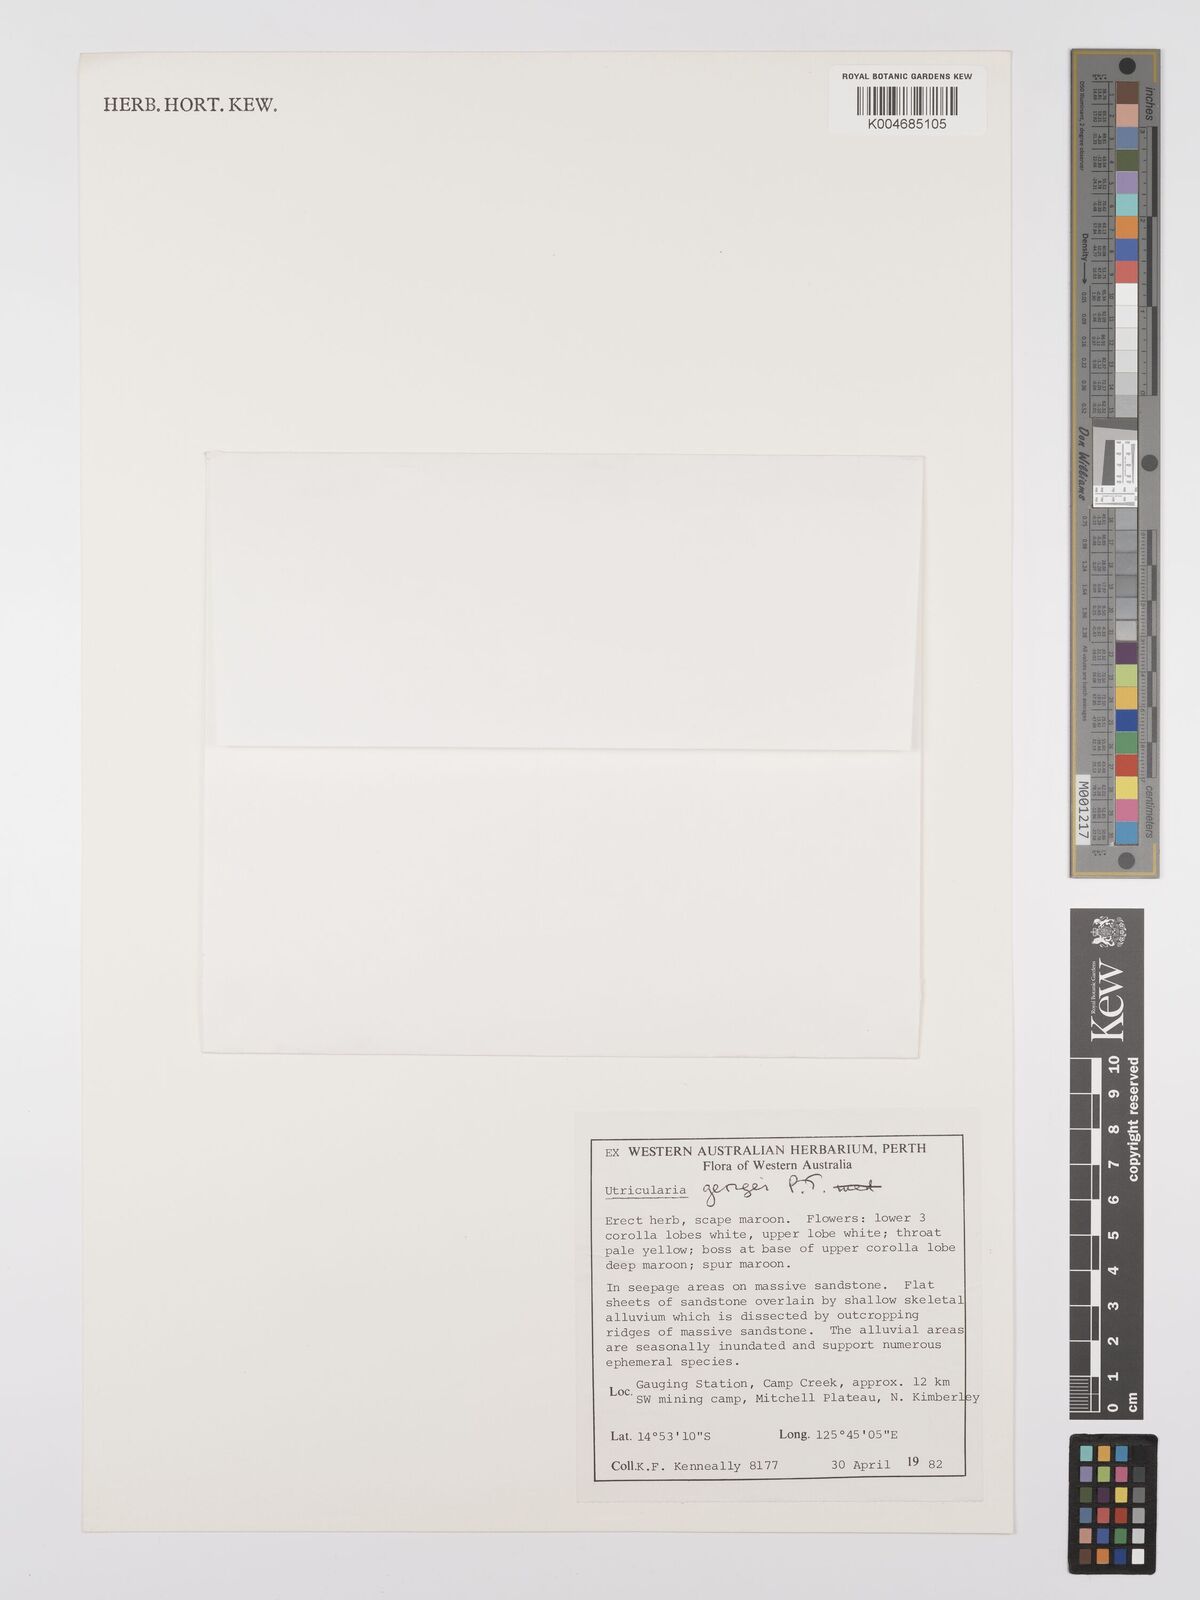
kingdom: Plantae
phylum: Tracheophyta
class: Magnoliopsida
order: Lamiales
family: Lentibulariaceae
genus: Utricularia
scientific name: Utricularia kimberleyensis
